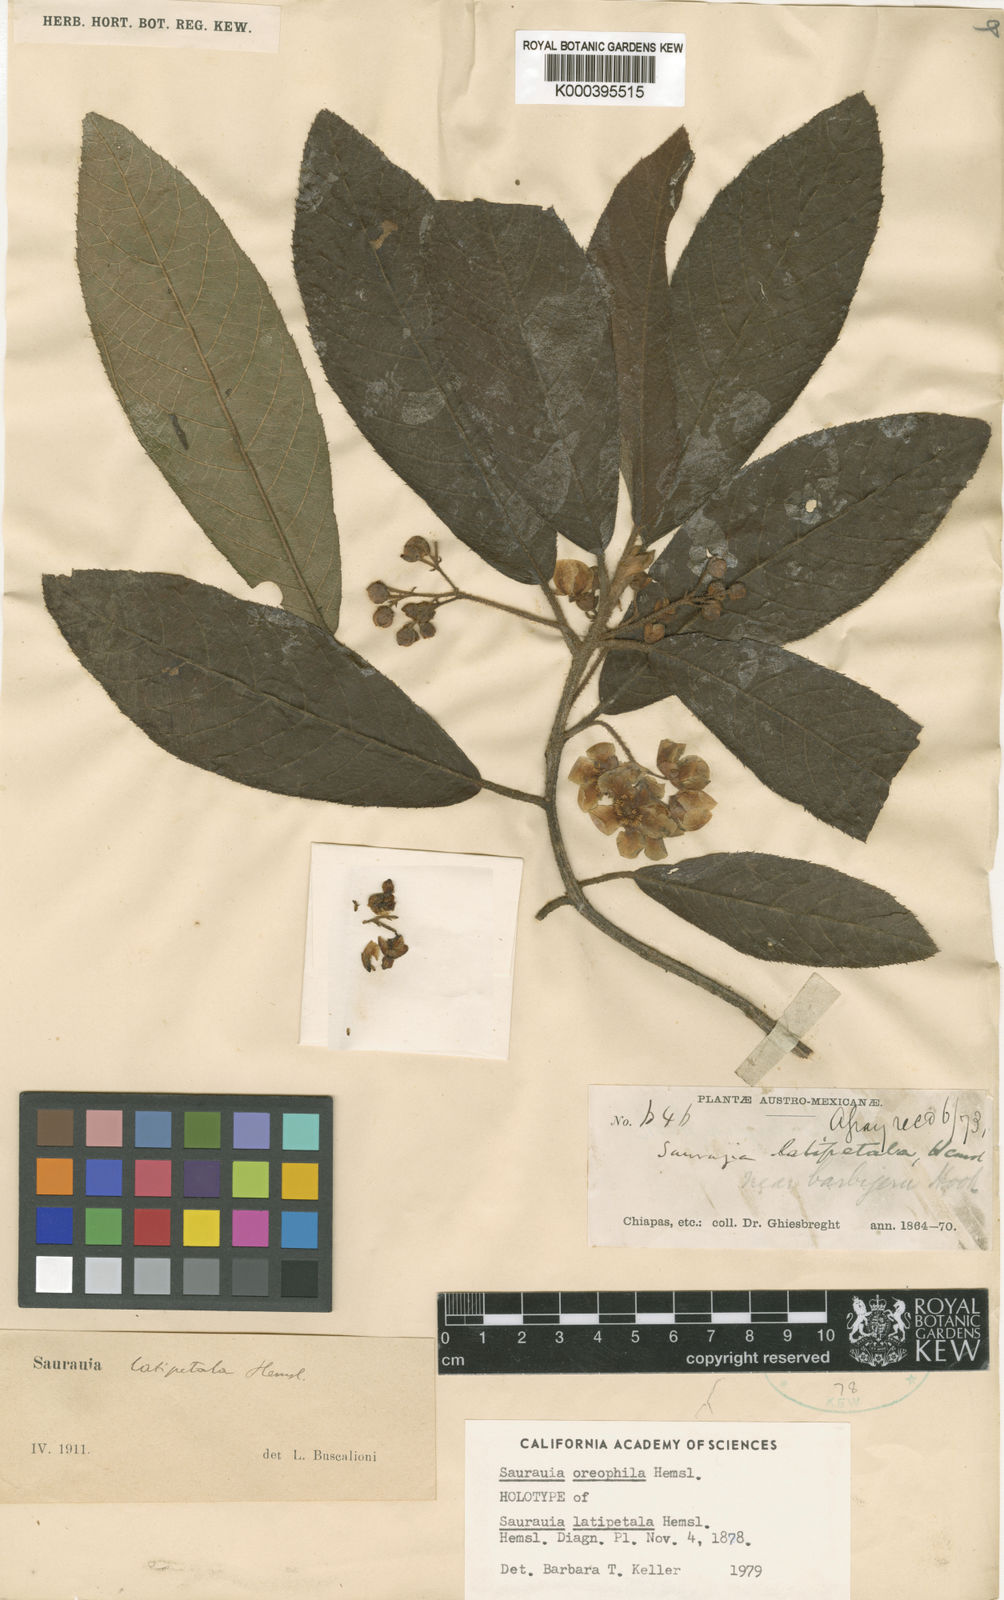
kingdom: Plantae
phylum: Tracheophyta
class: Magnoliopsida
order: Ericales
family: Actinidiaceae
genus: Saurauia
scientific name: Saurauia oreophila
